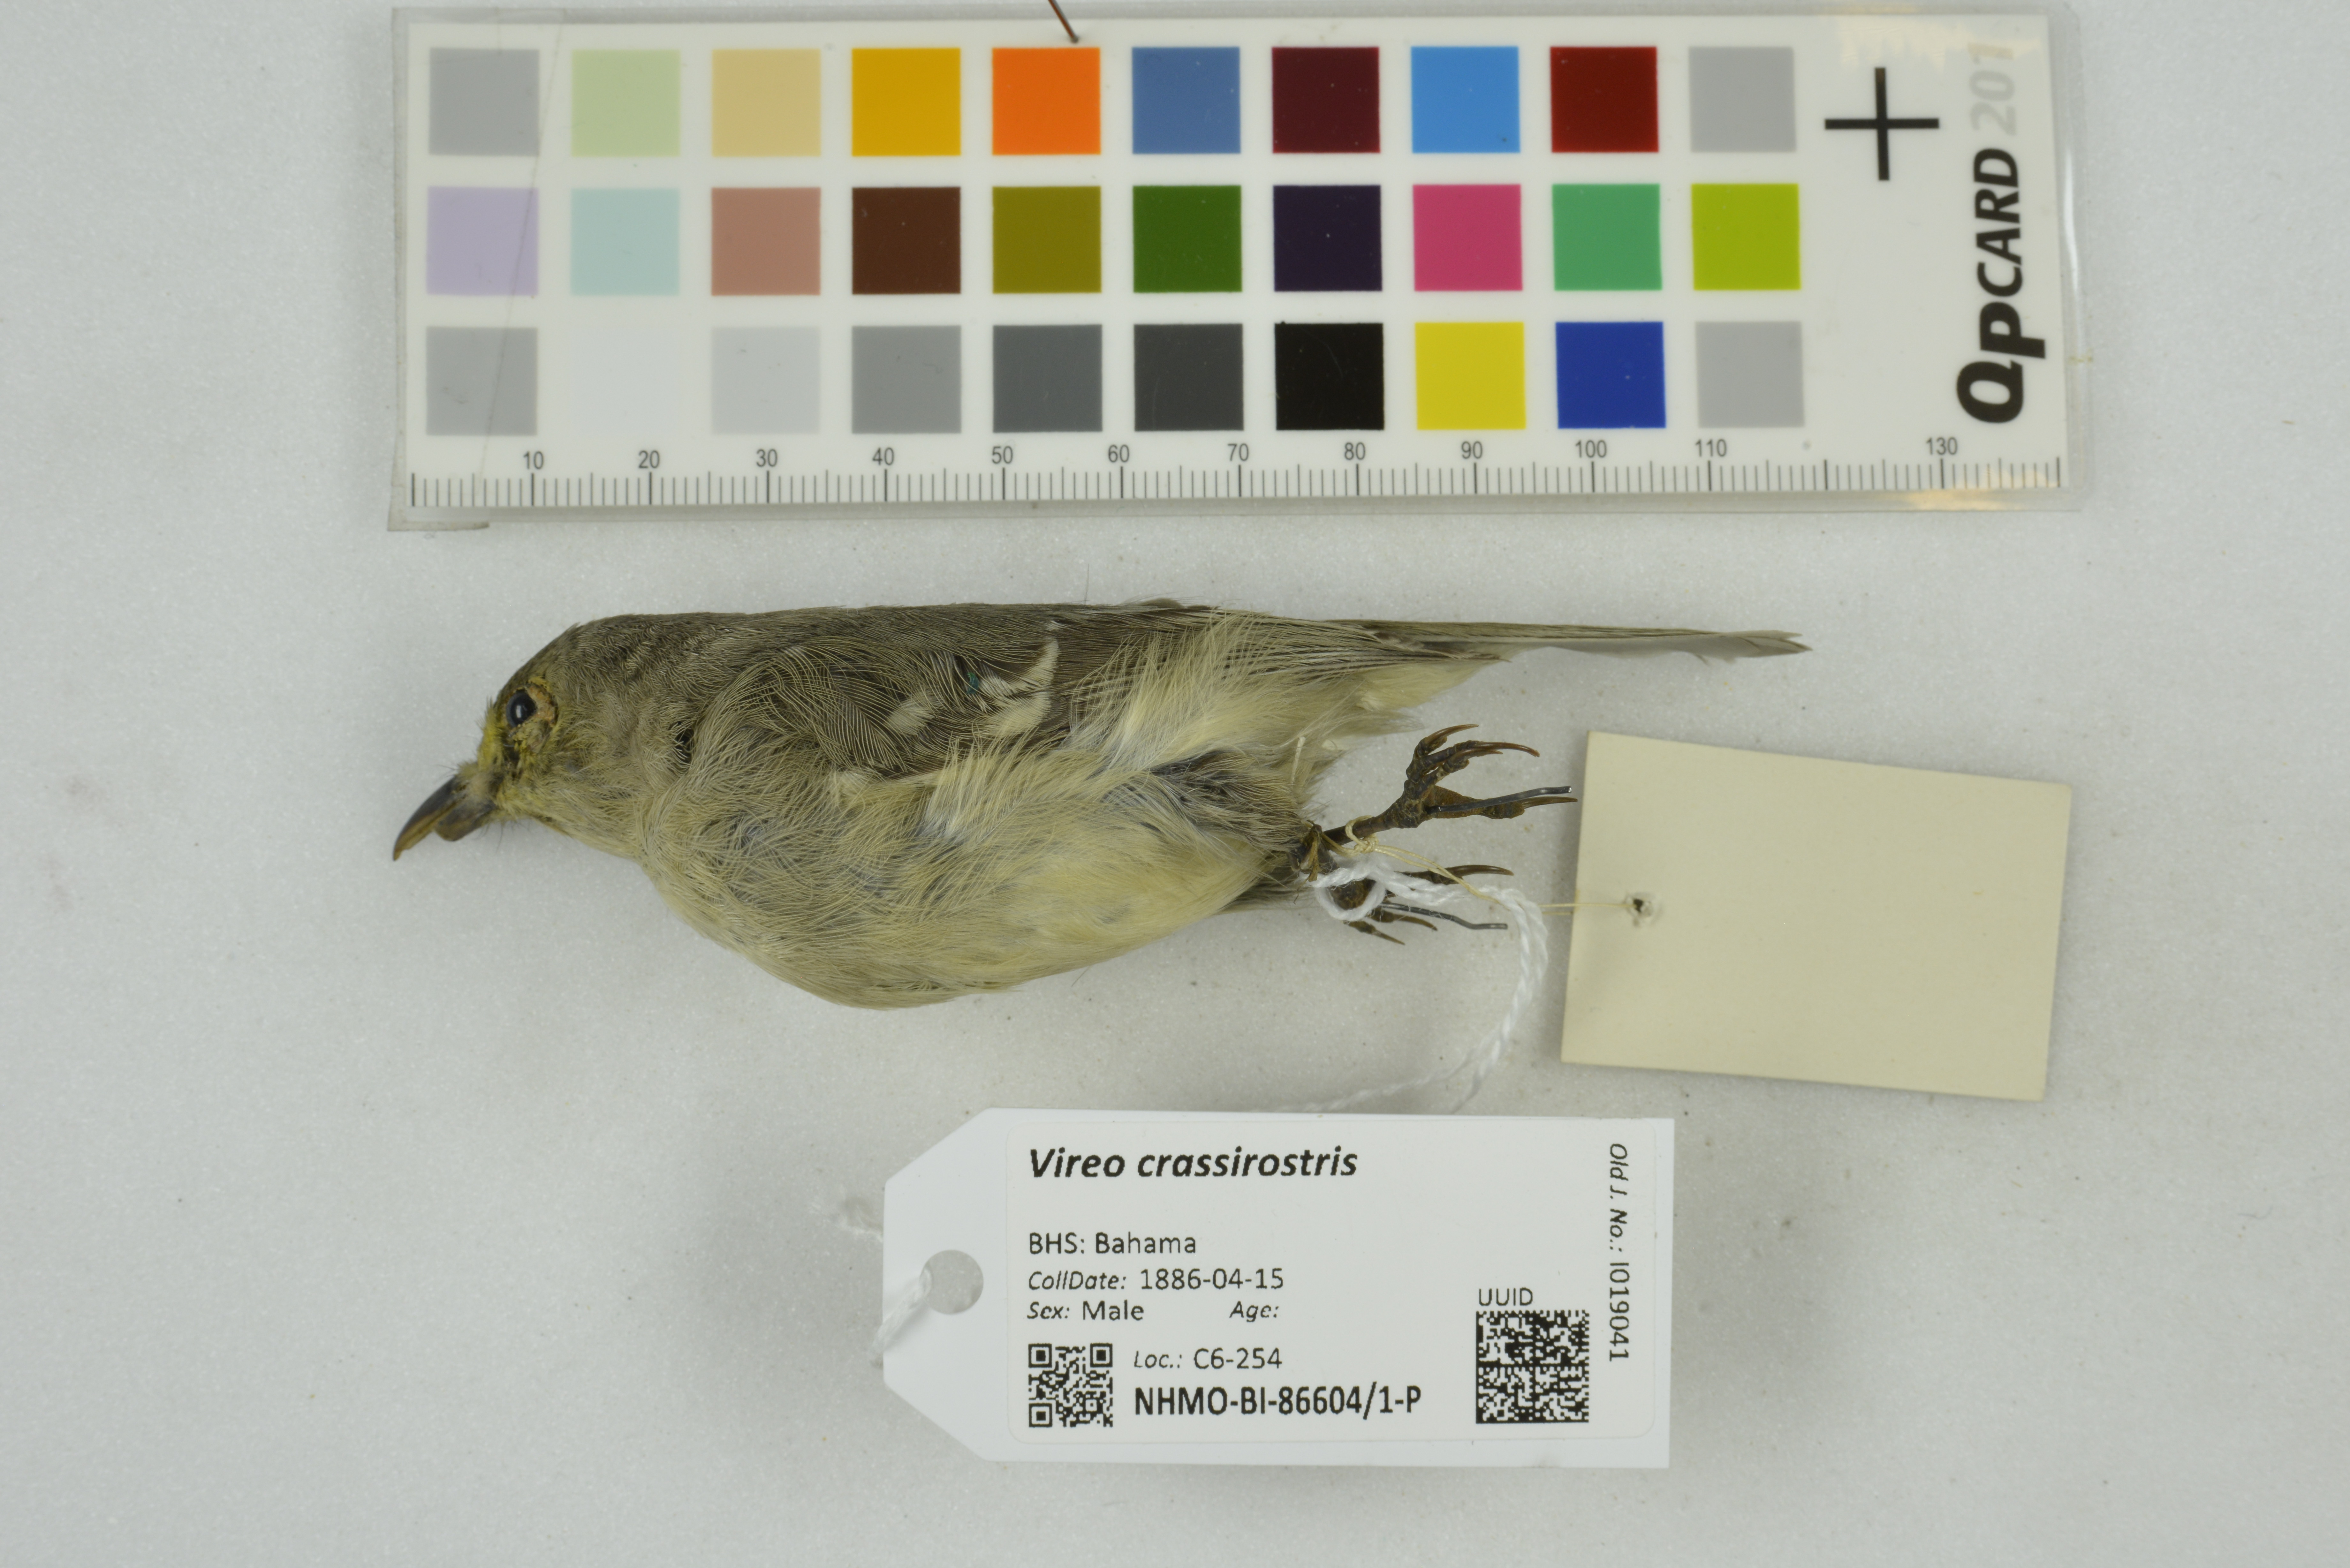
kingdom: Animalia
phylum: Chordata
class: Aves
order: Passeriformes
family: Vireonidae
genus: Vireo
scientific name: Vireo crassirostris
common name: Thick-billed vireo
